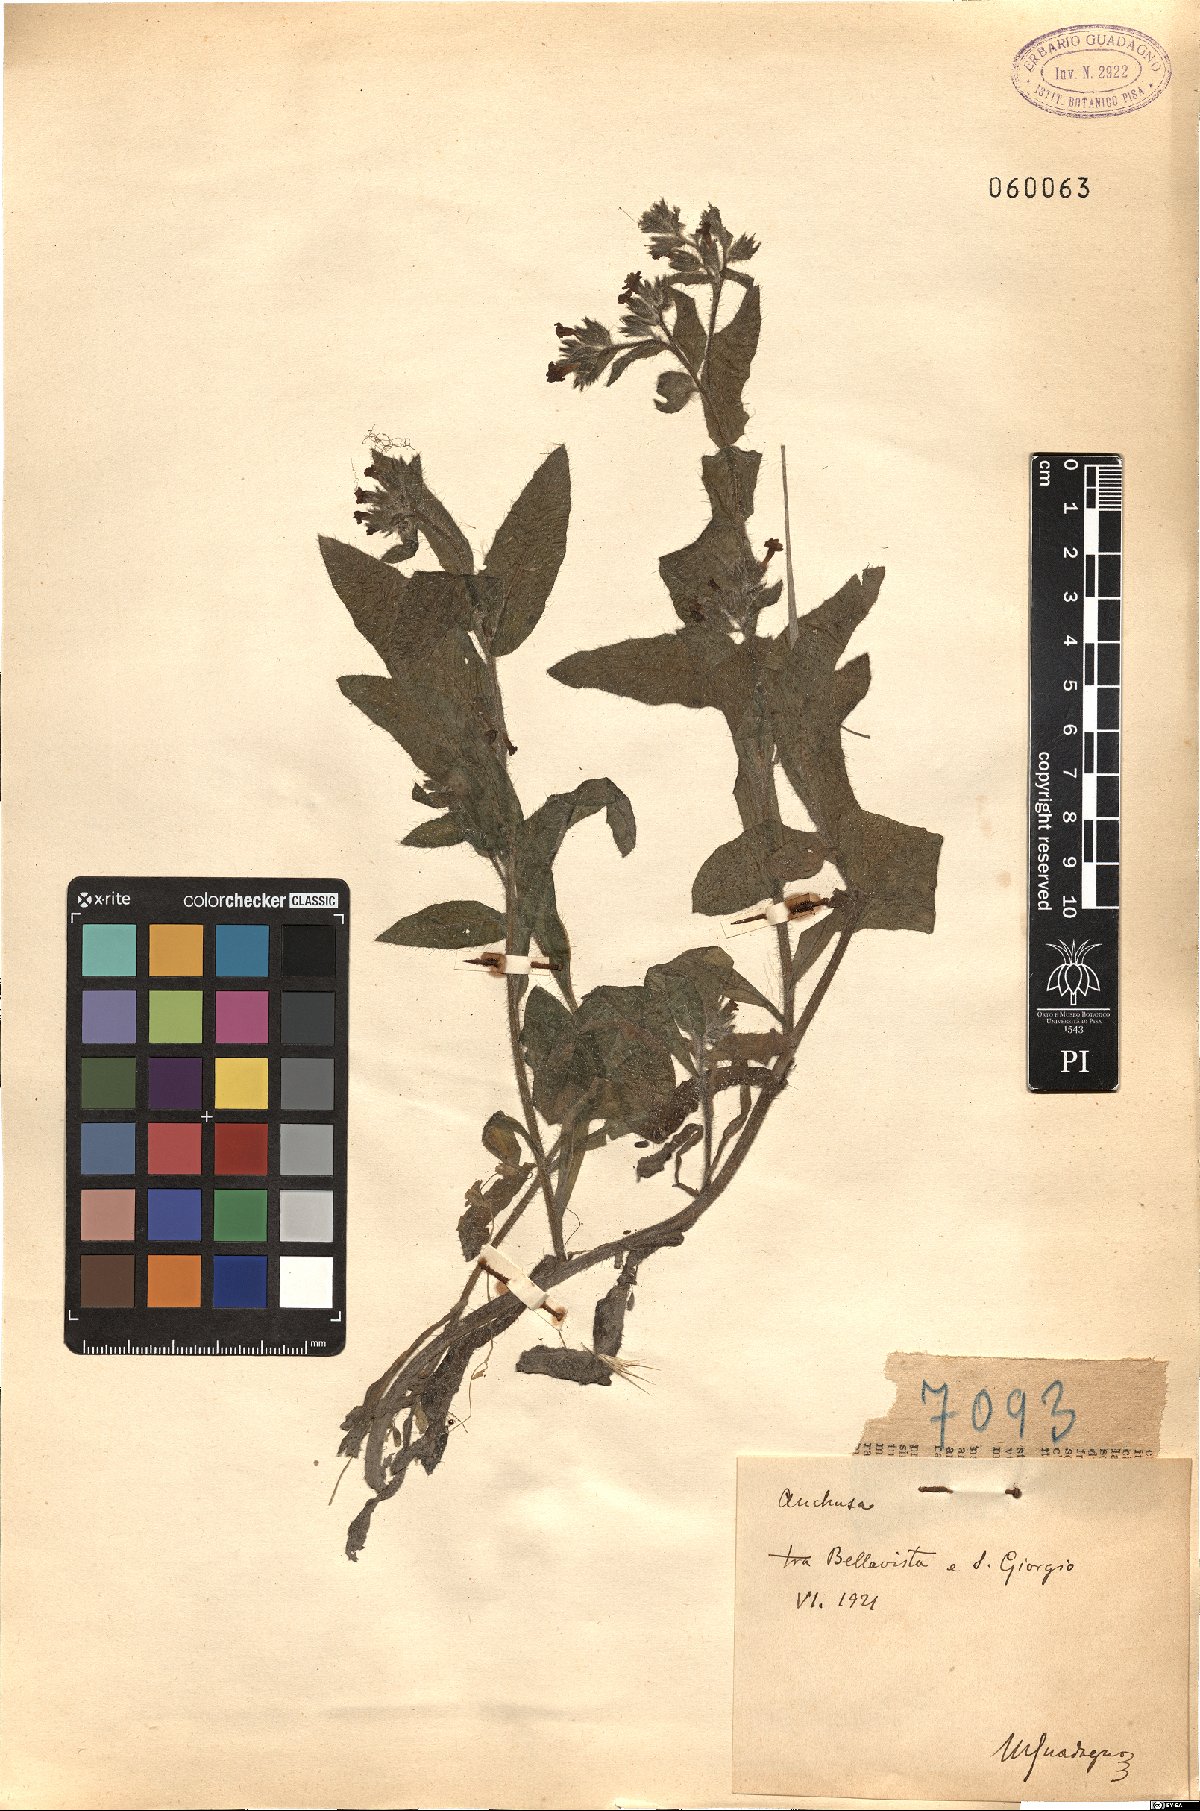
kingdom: Plantae
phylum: Tracheophyta
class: Magnoliopsida
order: Boraginales
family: Boraginaceae
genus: Anchusa
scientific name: Anchusa
